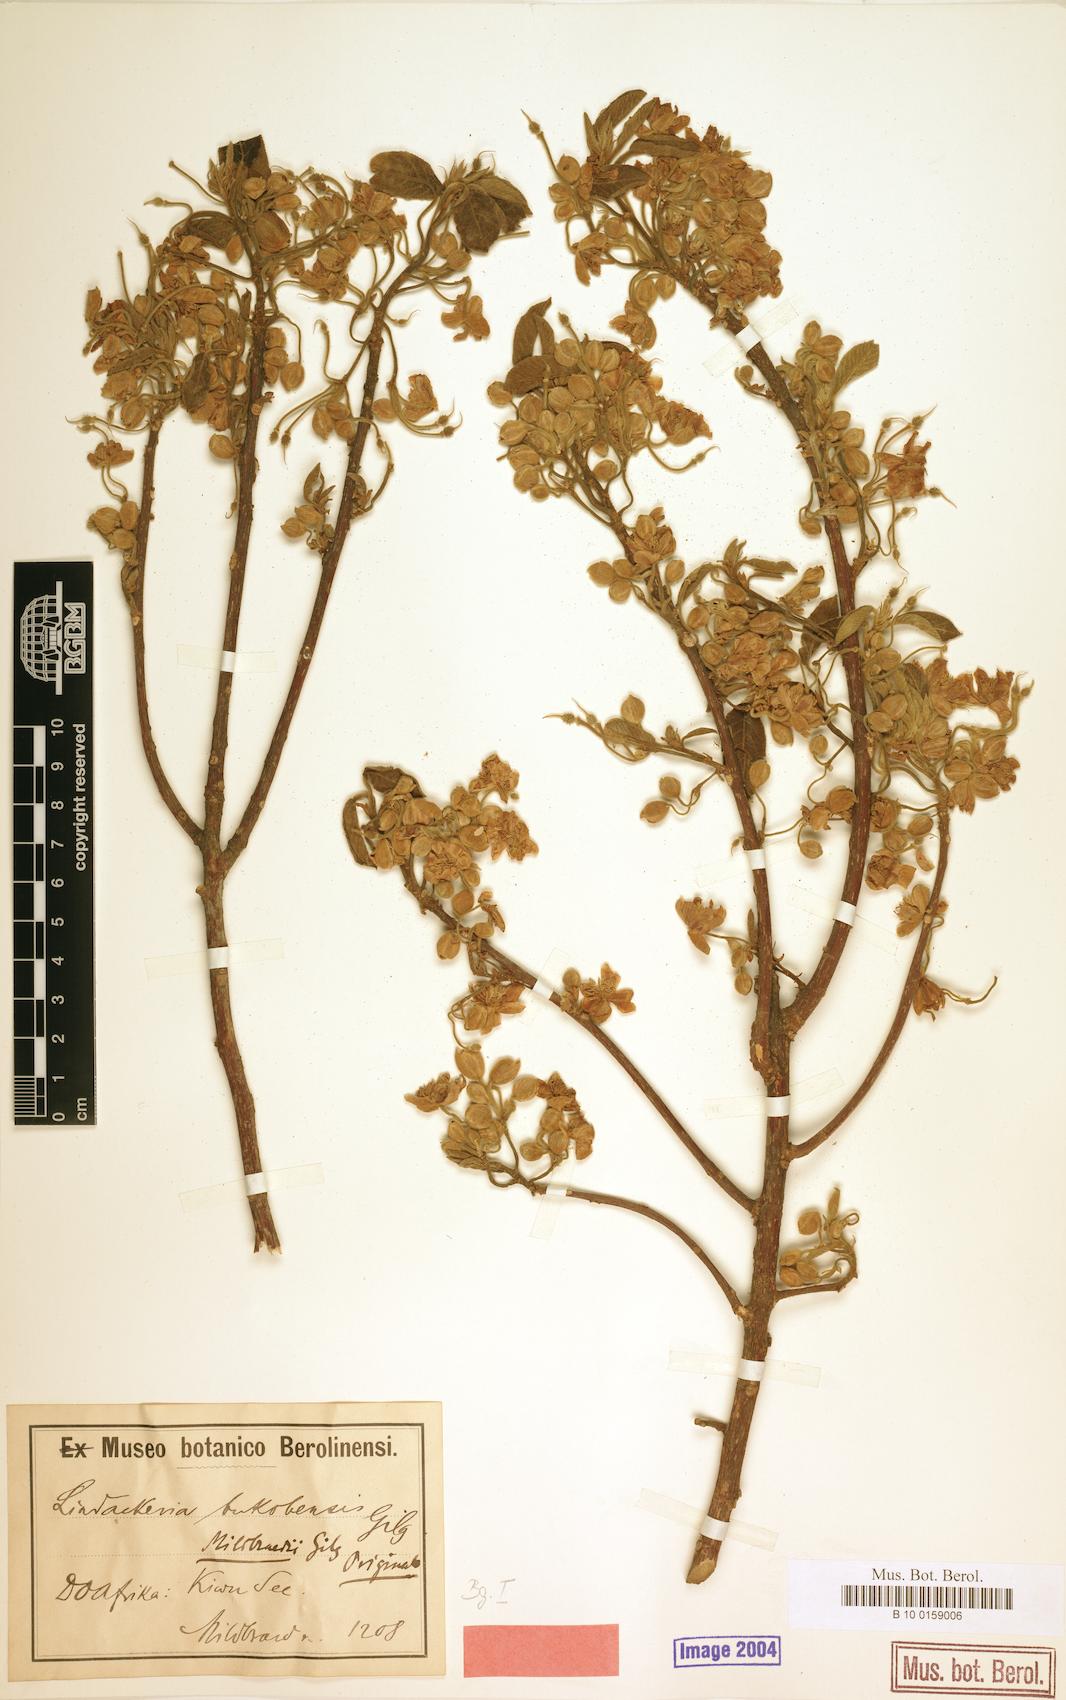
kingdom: Plantae
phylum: Tracheophyta
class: Magnoliopsida
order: Malpighiales
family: Achariaceae
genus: Lindackeria
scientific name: Lindackeria bukobensis
